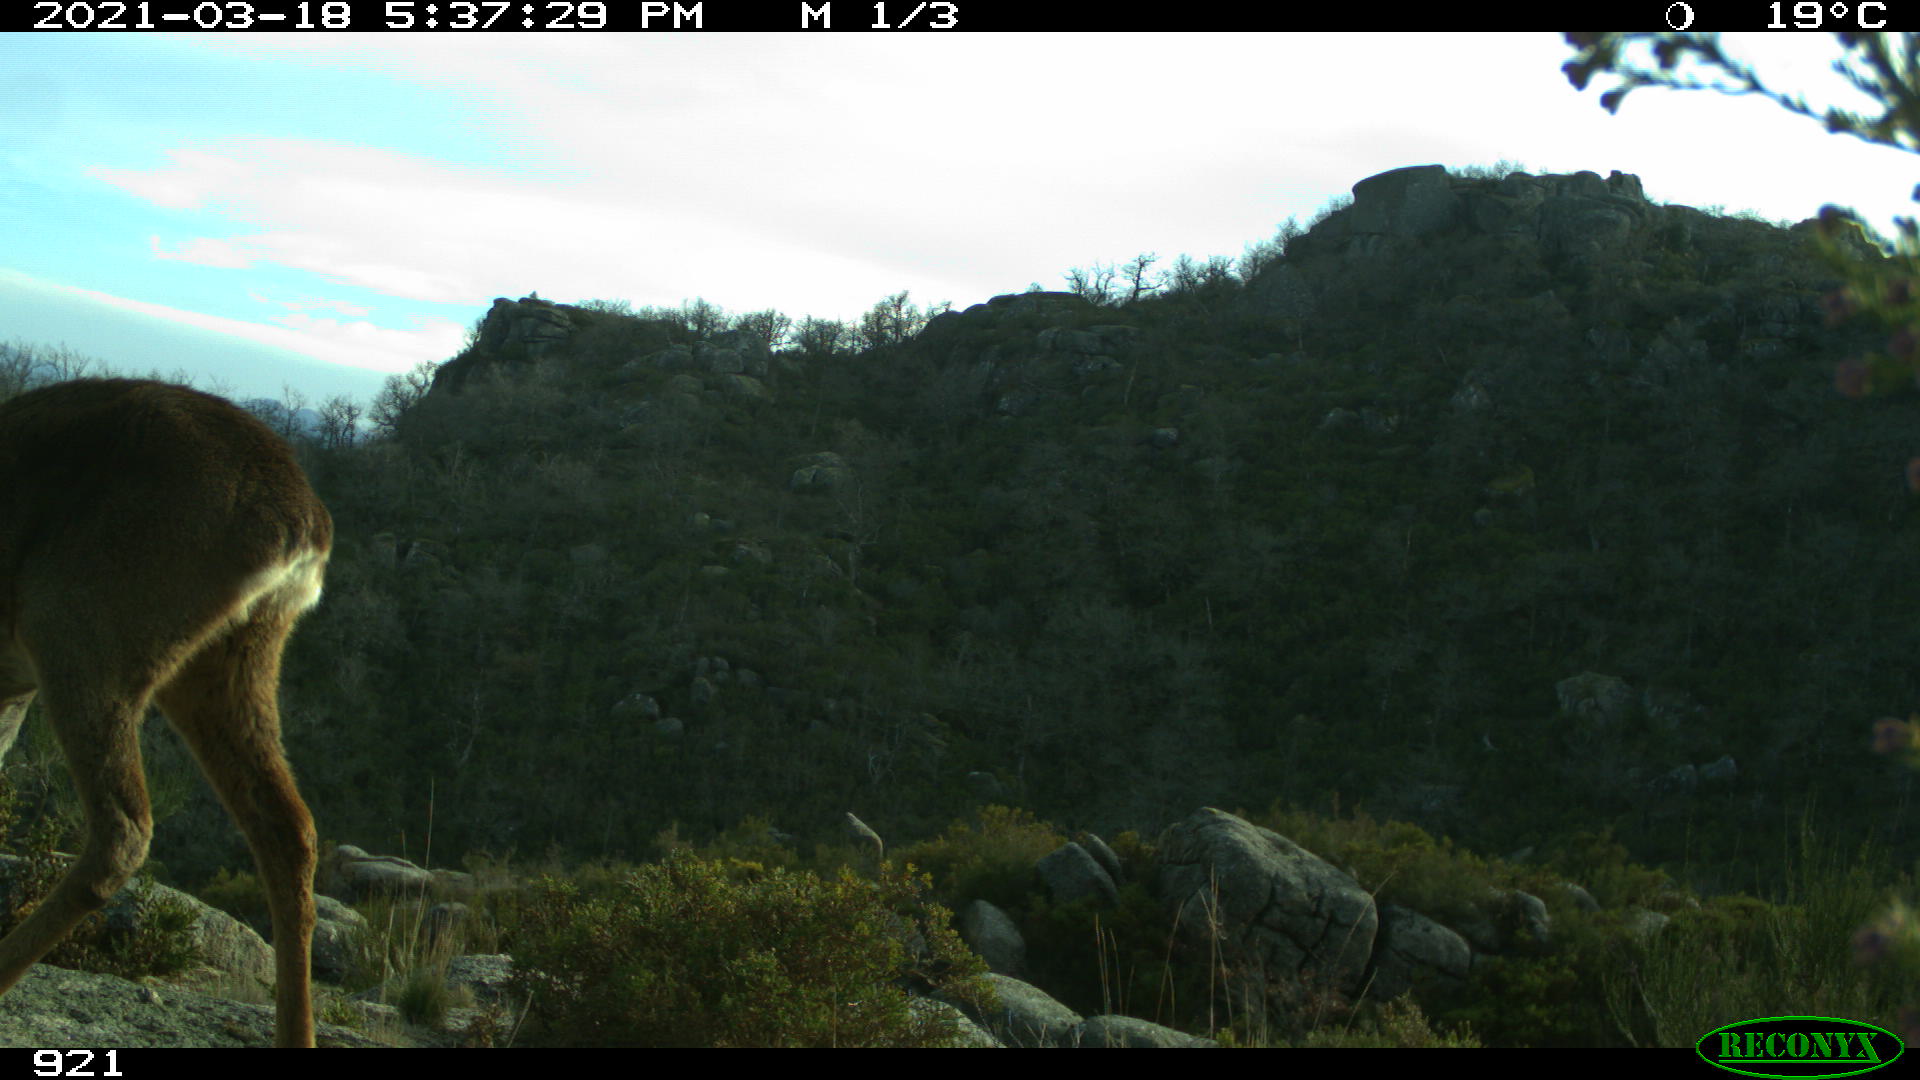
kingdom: Animalia
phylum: Chordata
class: Mammalia
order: Artiodactyla
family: Cervidae
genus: Capreolus
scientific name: Capreolus capreolus
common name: Western roe deer
